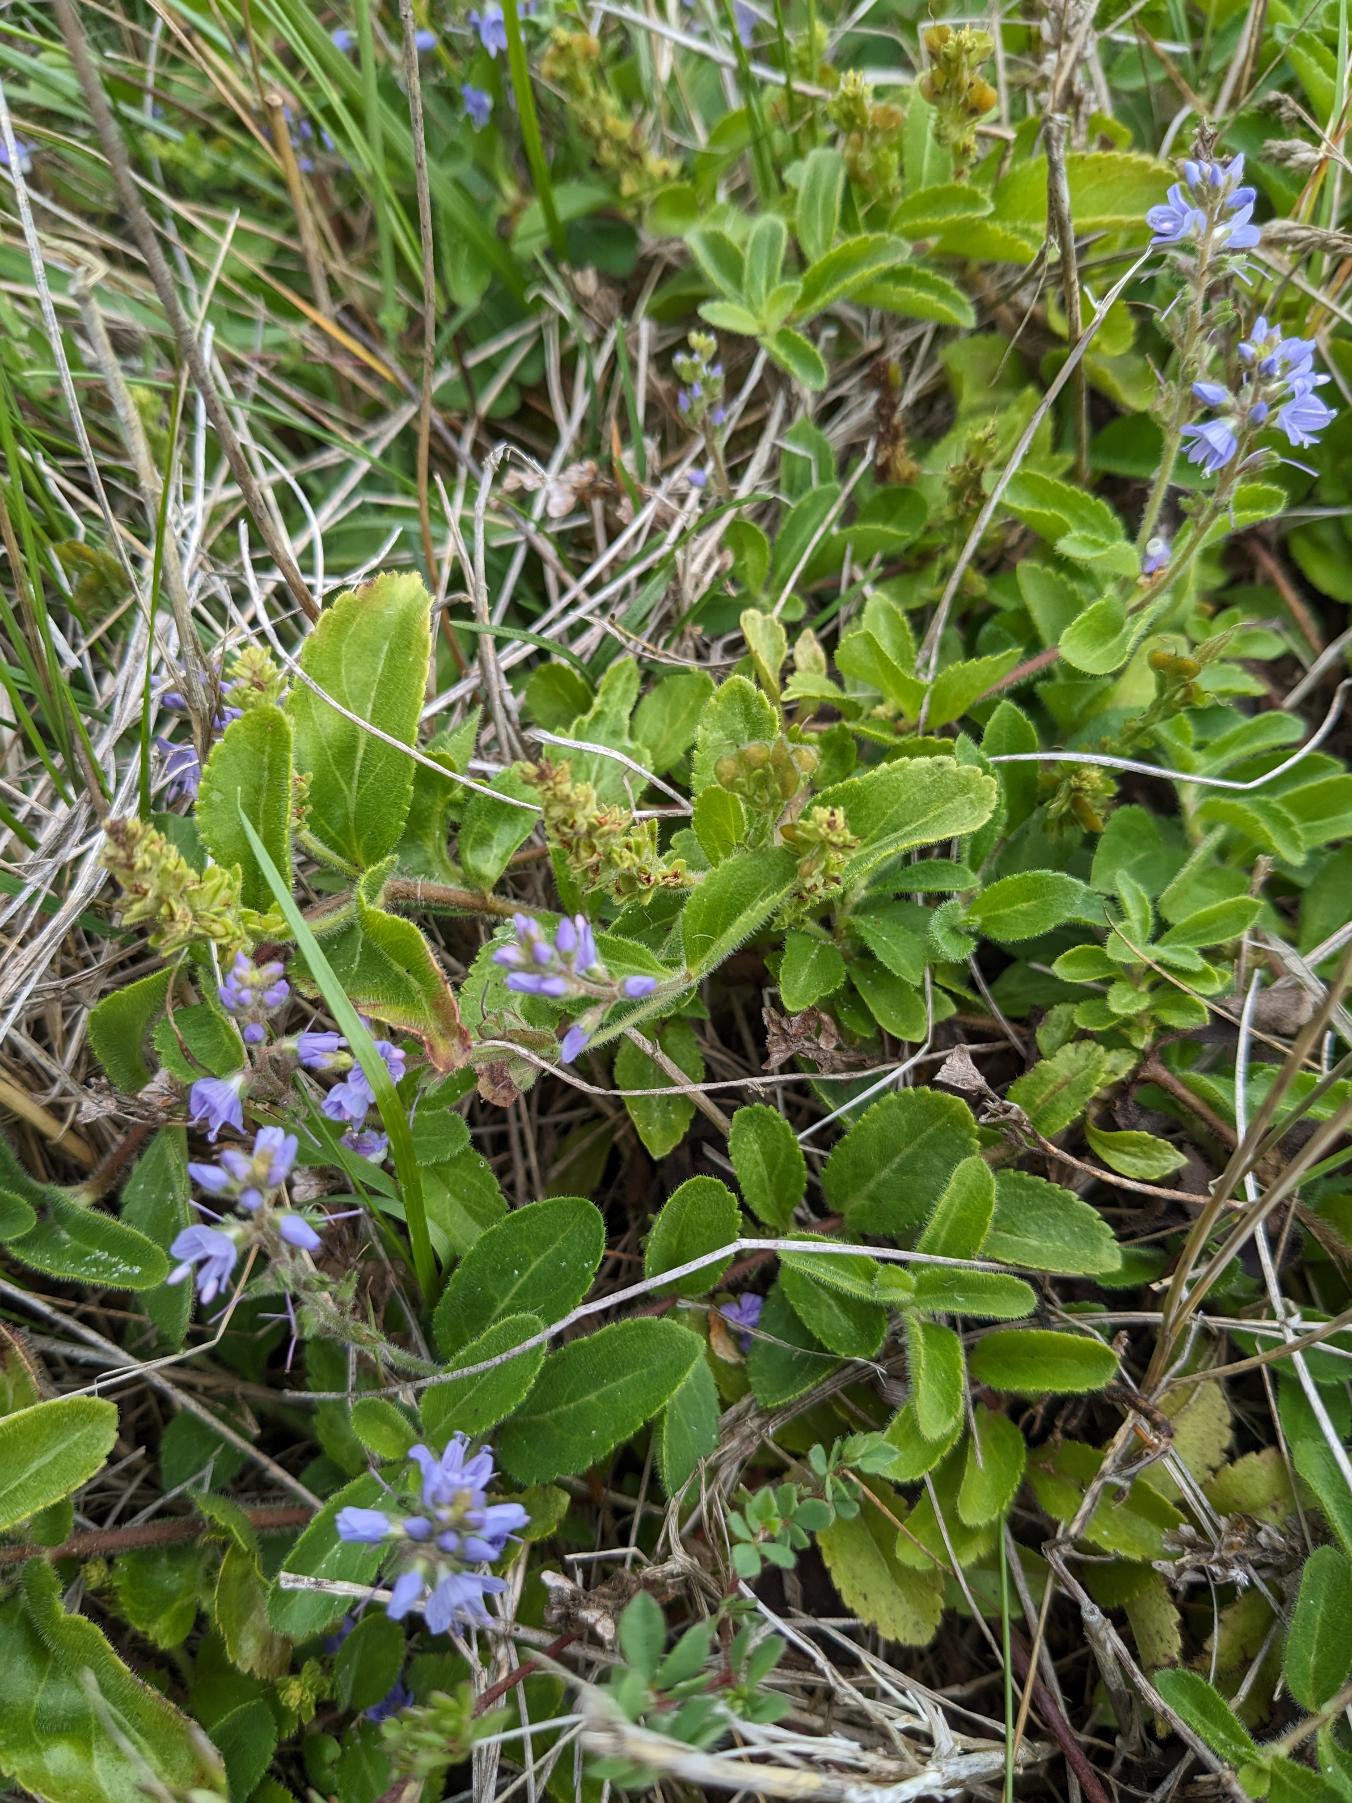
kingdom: Plantae
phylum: Tracheophyta
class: Magnoliopsida
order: Lamiales
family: Plantaginaceae
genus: Veronica
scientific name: Veronica officinalis
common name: Læge-ærenpris
